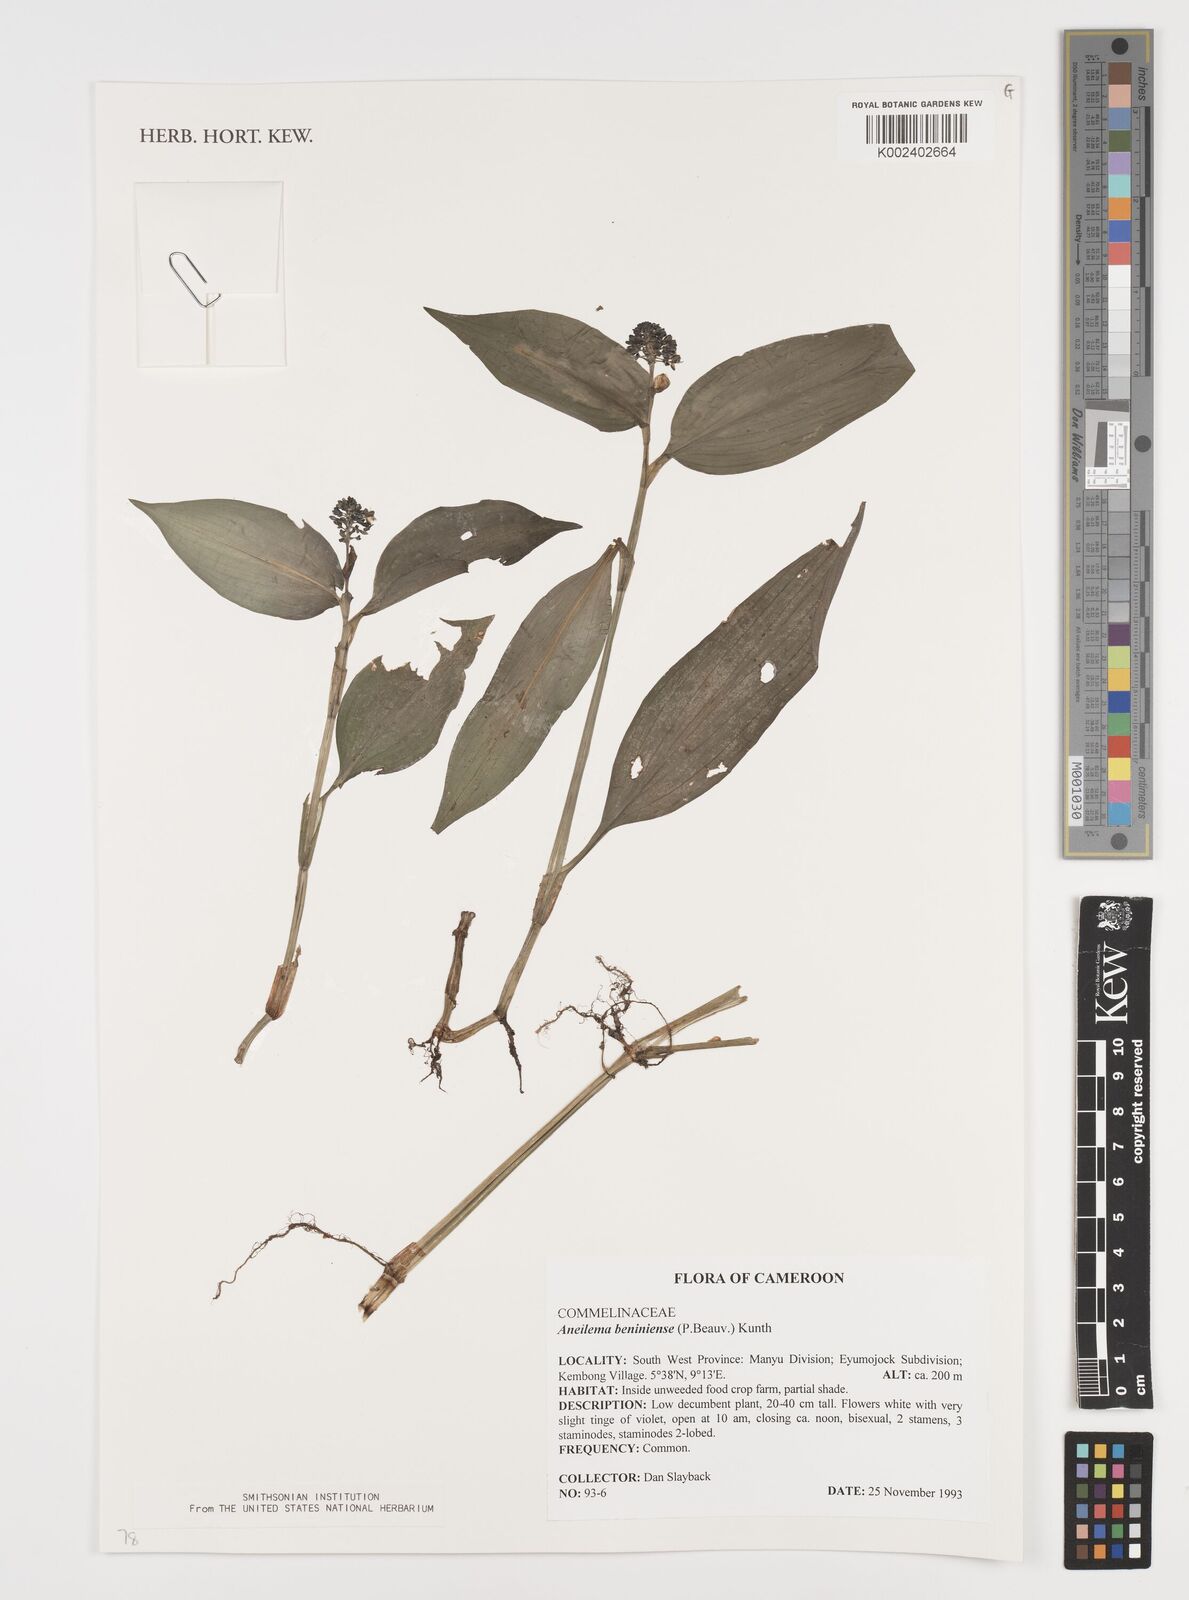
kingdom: Plantae
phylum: Tracheophyta
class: Liliopsida
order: Commelinales
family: Commelinaceae
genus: Aneilema
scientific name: Aneilema beniniense
